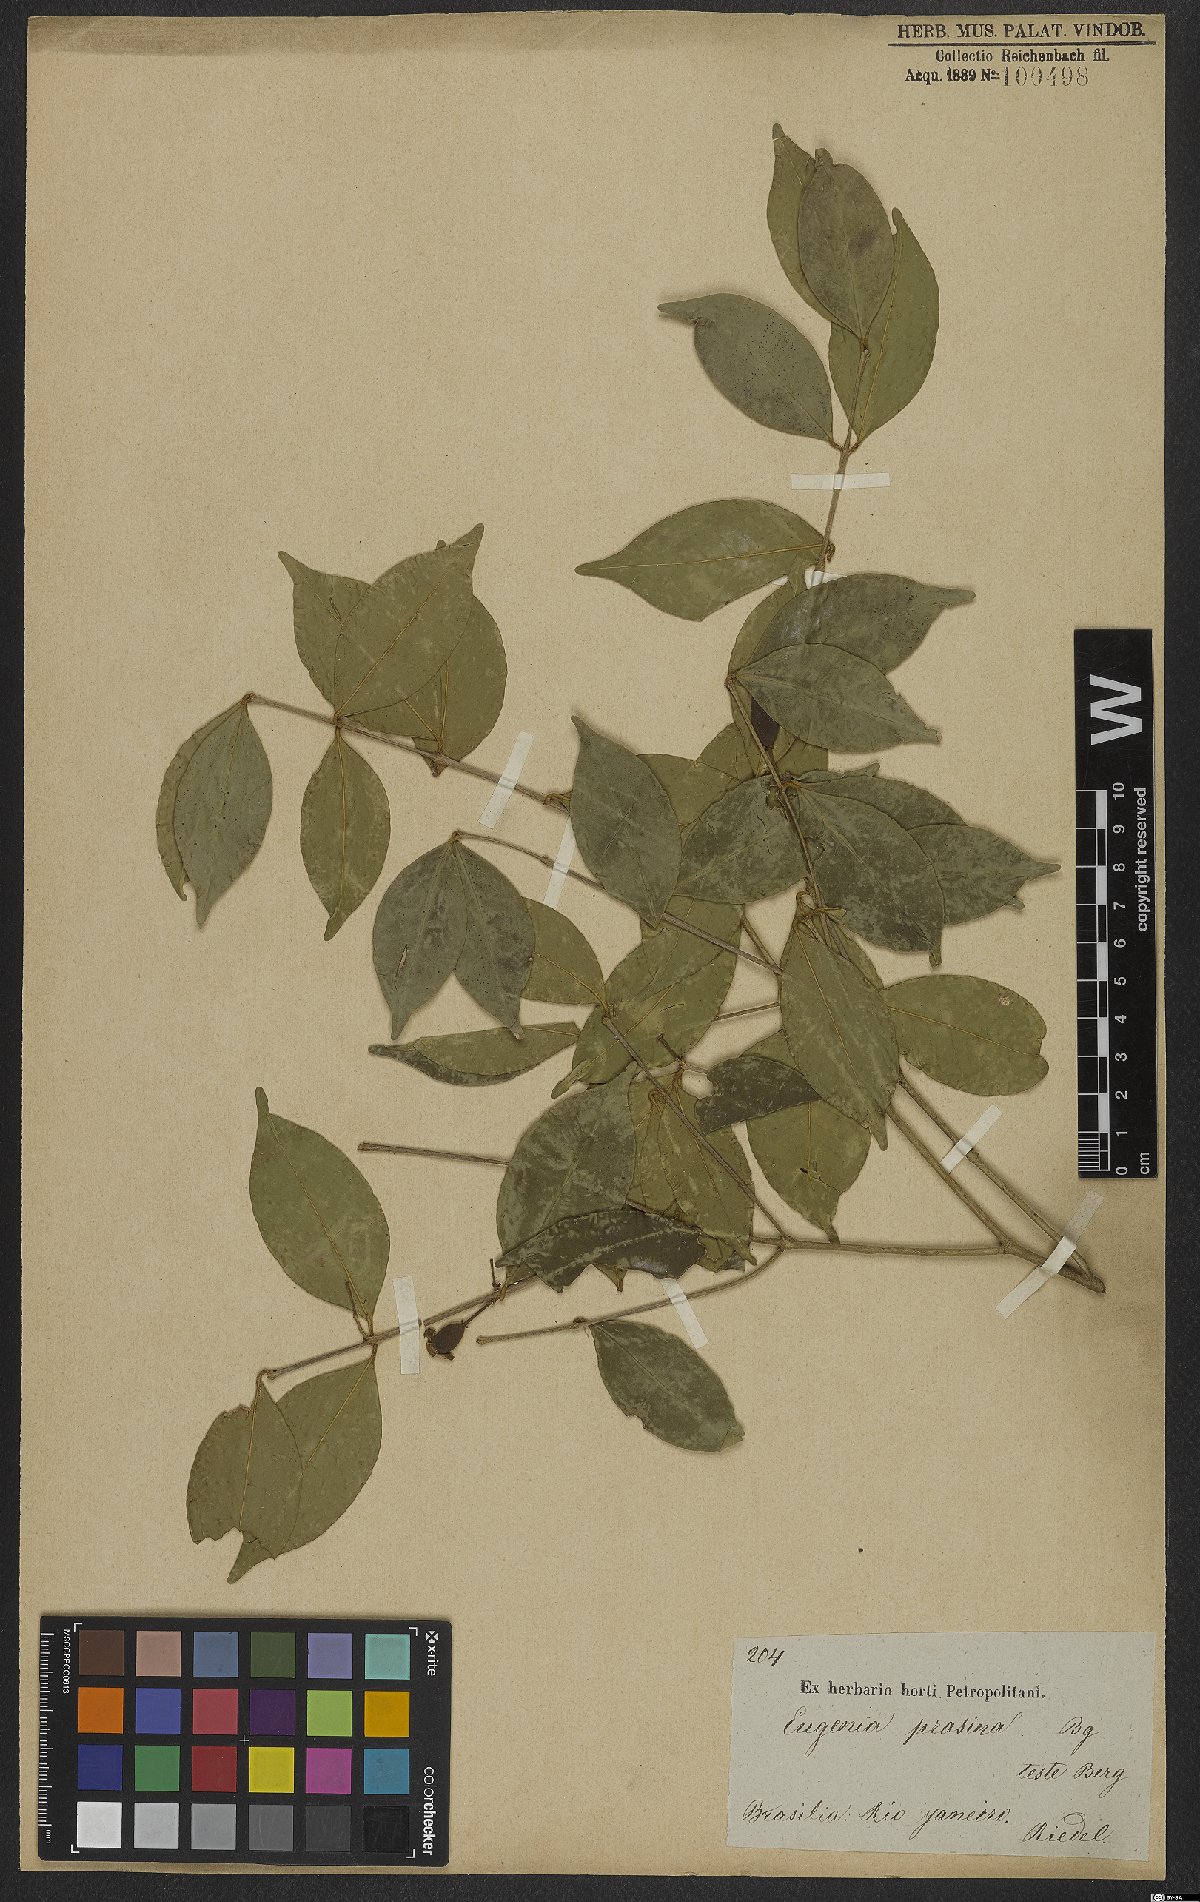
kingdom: Plantae
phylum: Tracheophyta
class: Magnoliopsida
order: Myrtales
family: Myrtaceae
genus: Eugenia
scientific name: Eugenia pluriflora
